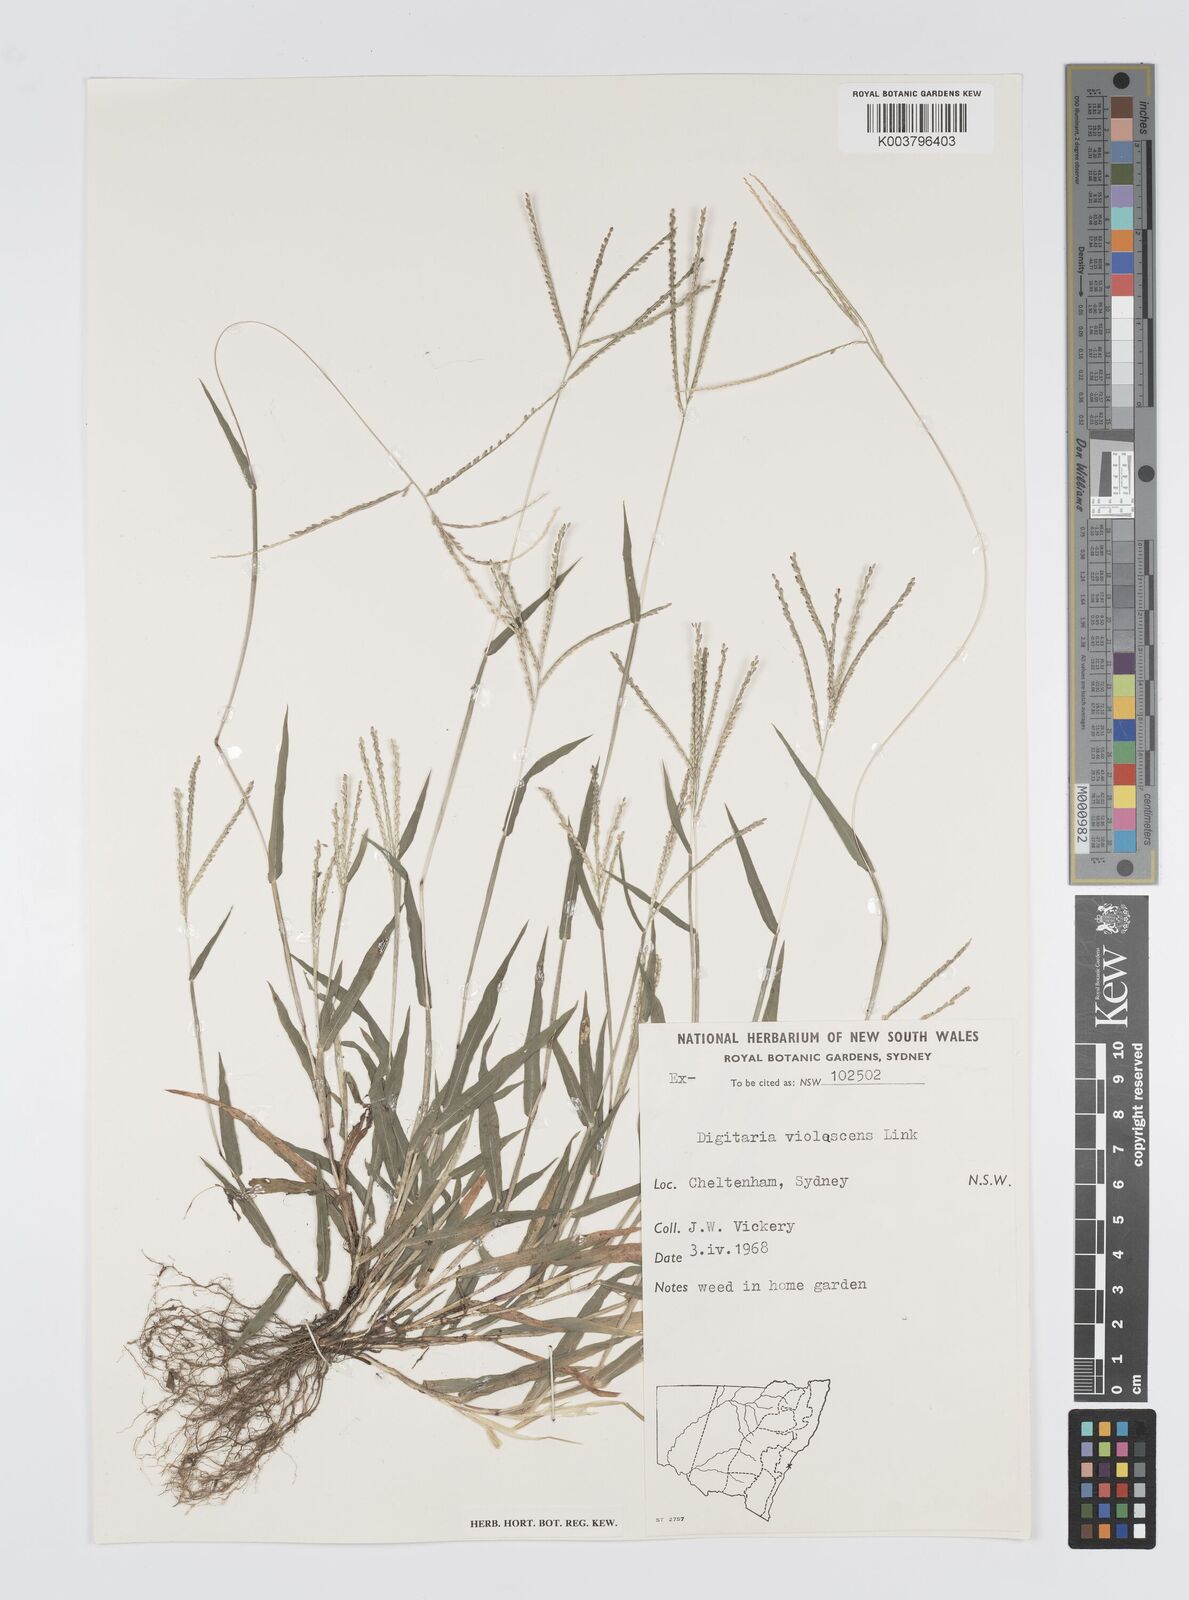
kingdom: Plantae
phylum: Tracheophyta
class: Liliopsida
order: Poales
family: Poaceae
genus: Digitaria
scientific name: Digitaria violascens
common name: Violet crabgrass
